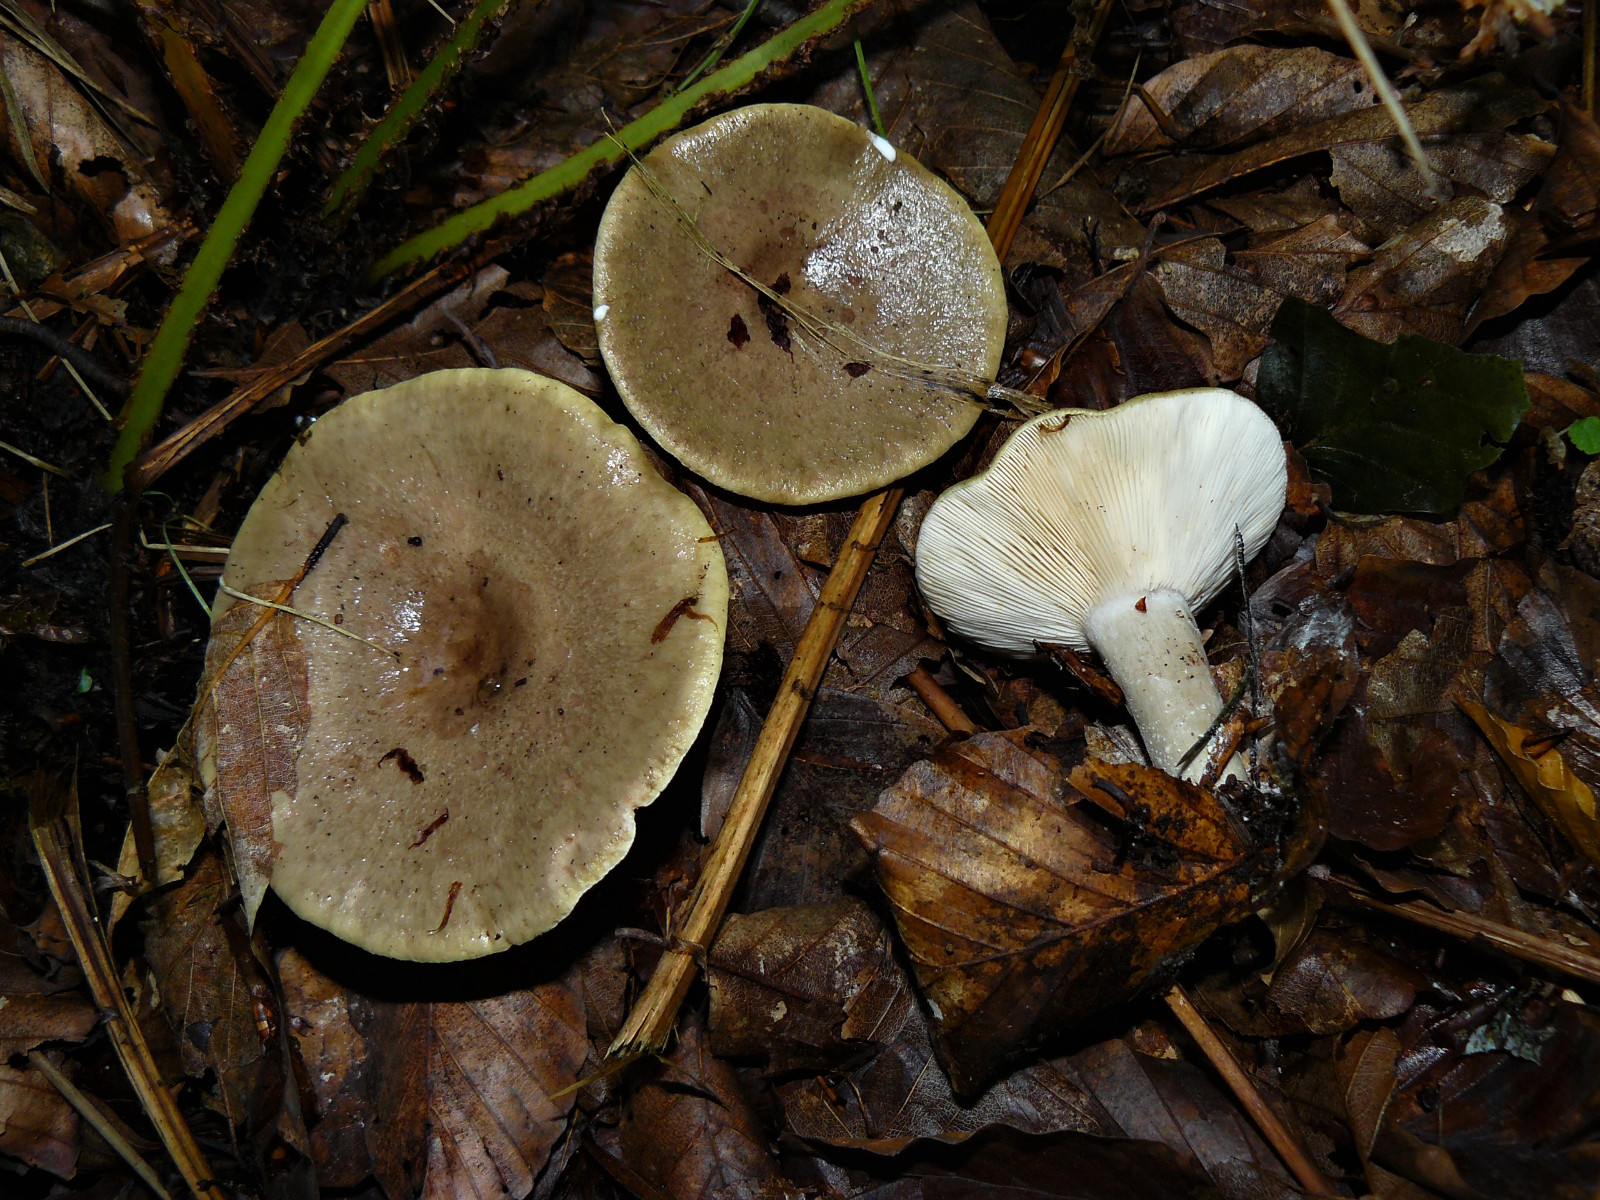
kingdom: Fungi
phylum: Basidiomycota
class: Agaricomycetes
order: Russulales
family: Russulaceae
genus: Lactarius
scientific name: Lactarius fluens
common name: lysrandet mælkehat
